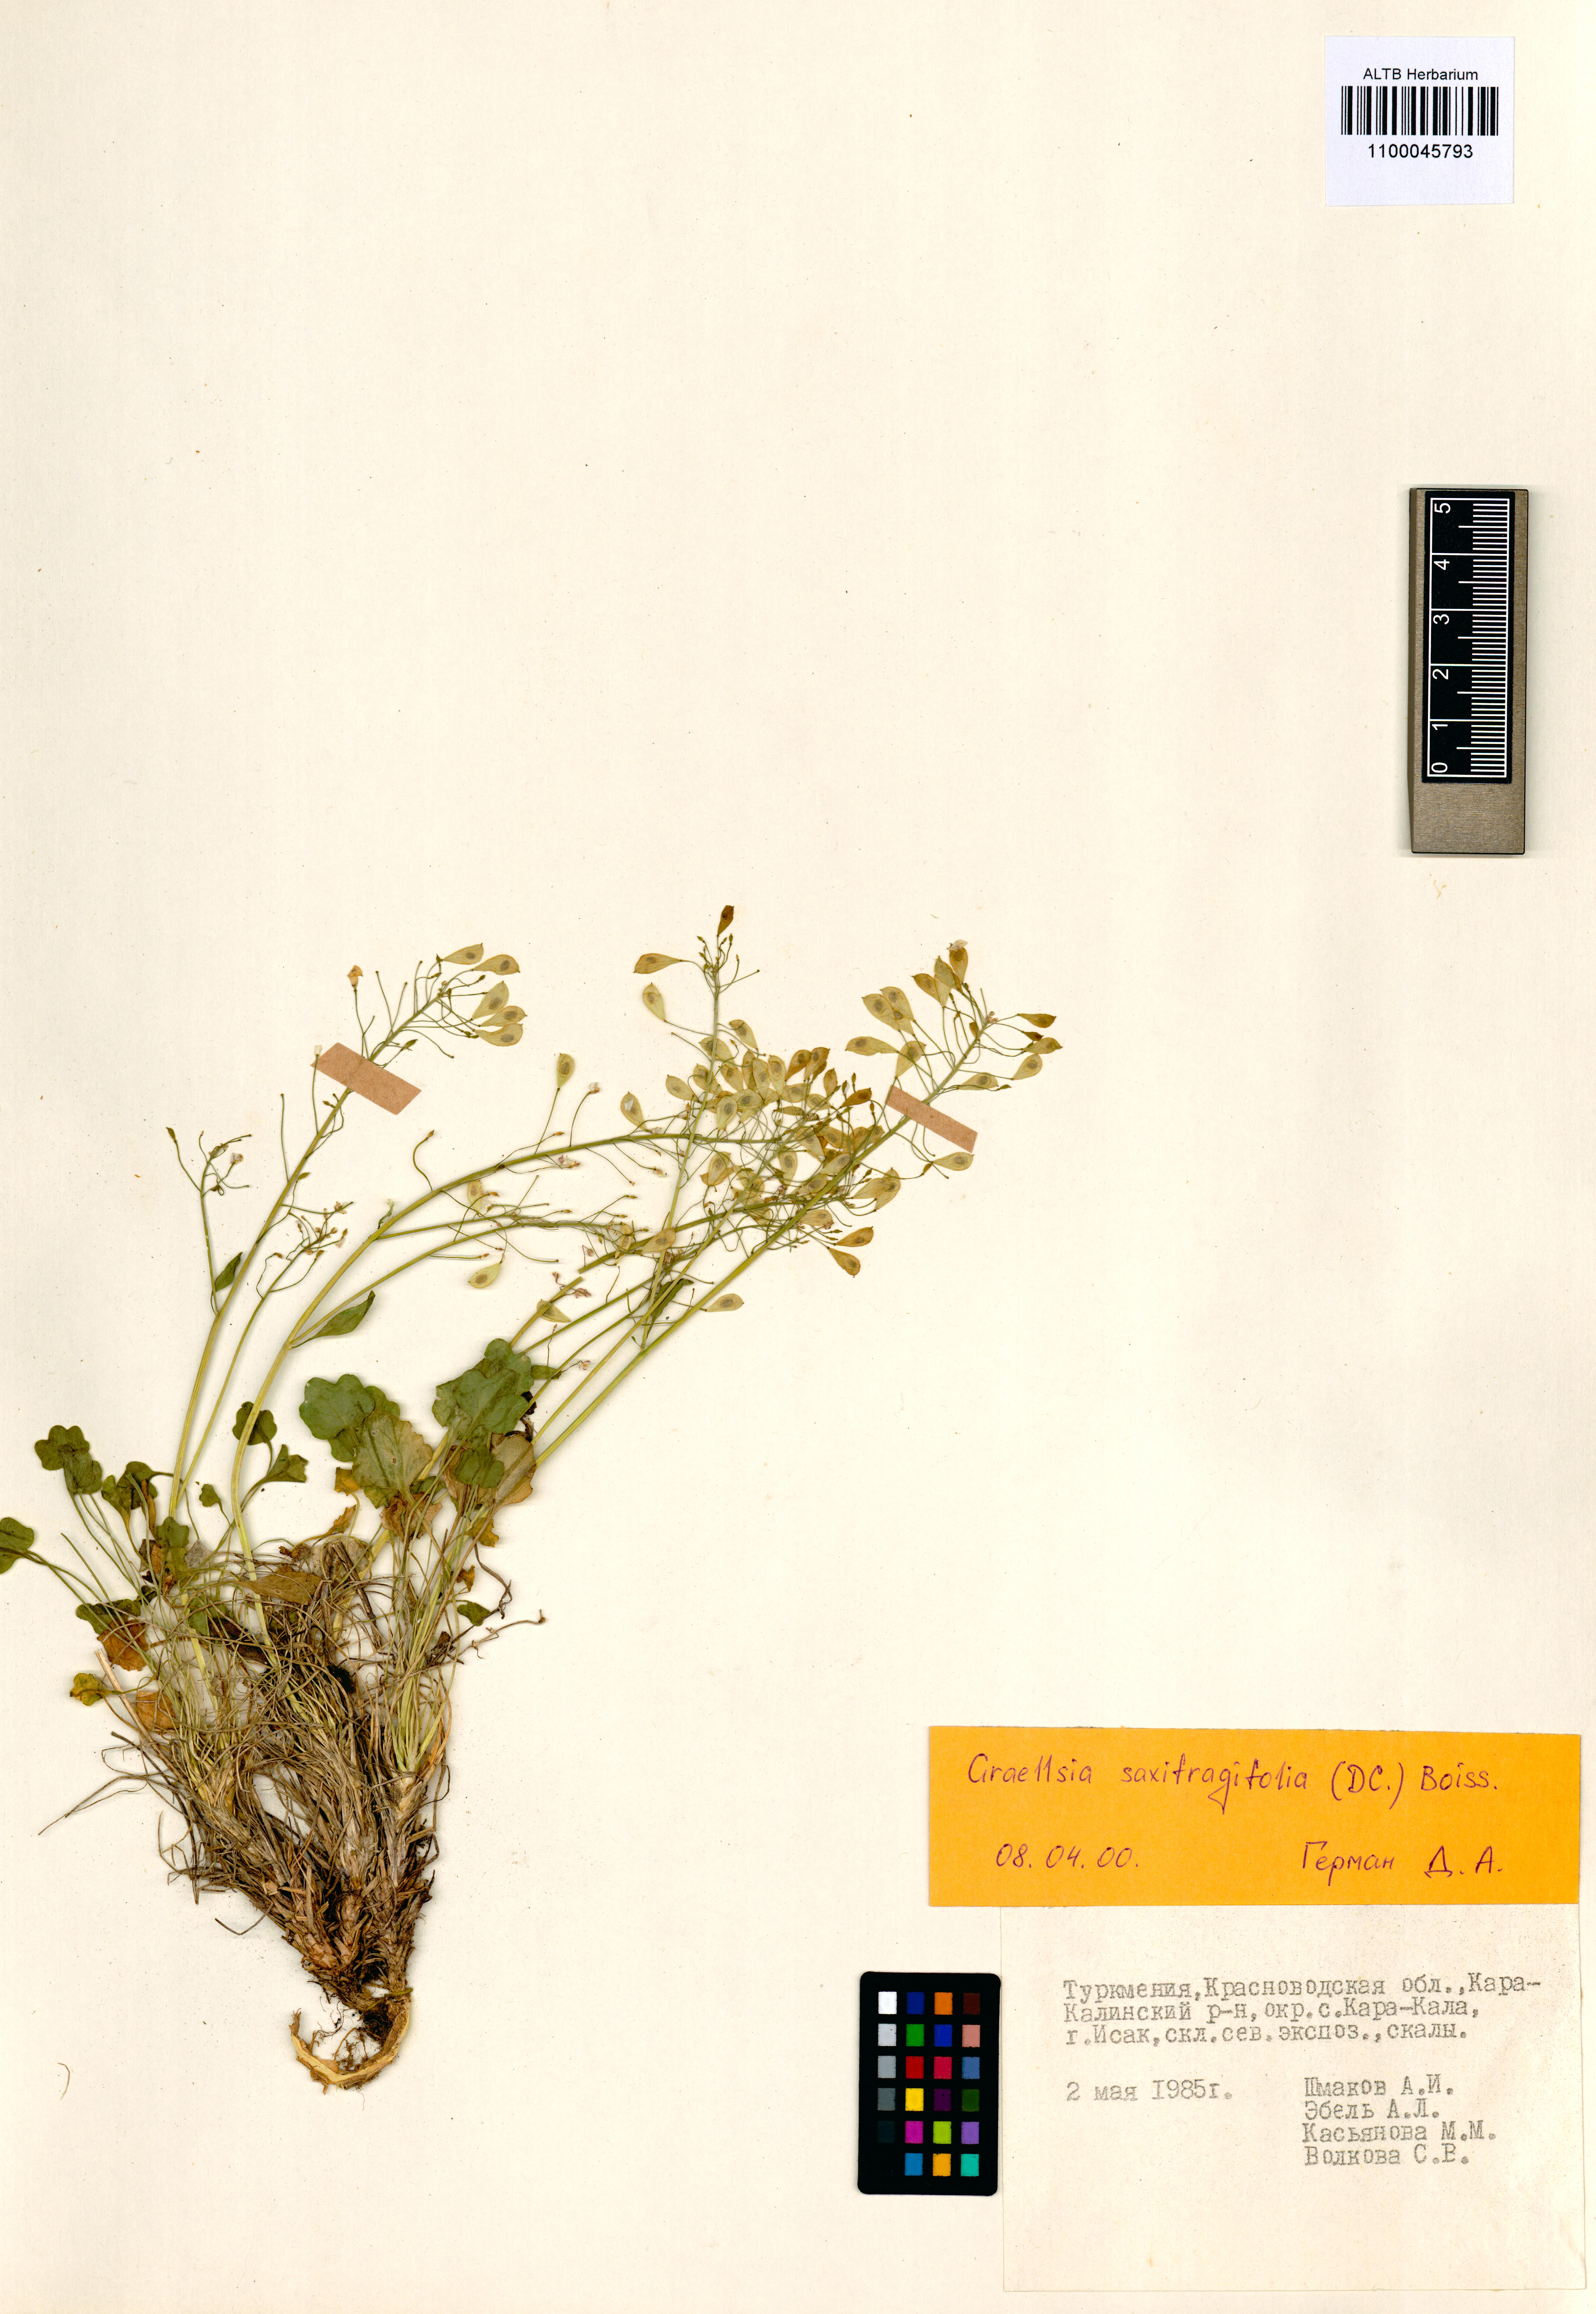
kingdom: Plantae
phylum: Tracheophyta
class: Magnoliopsida
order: Brassicales
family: Brassicaceae
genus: Graellsia
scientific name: Graellsia saxifragifolia
